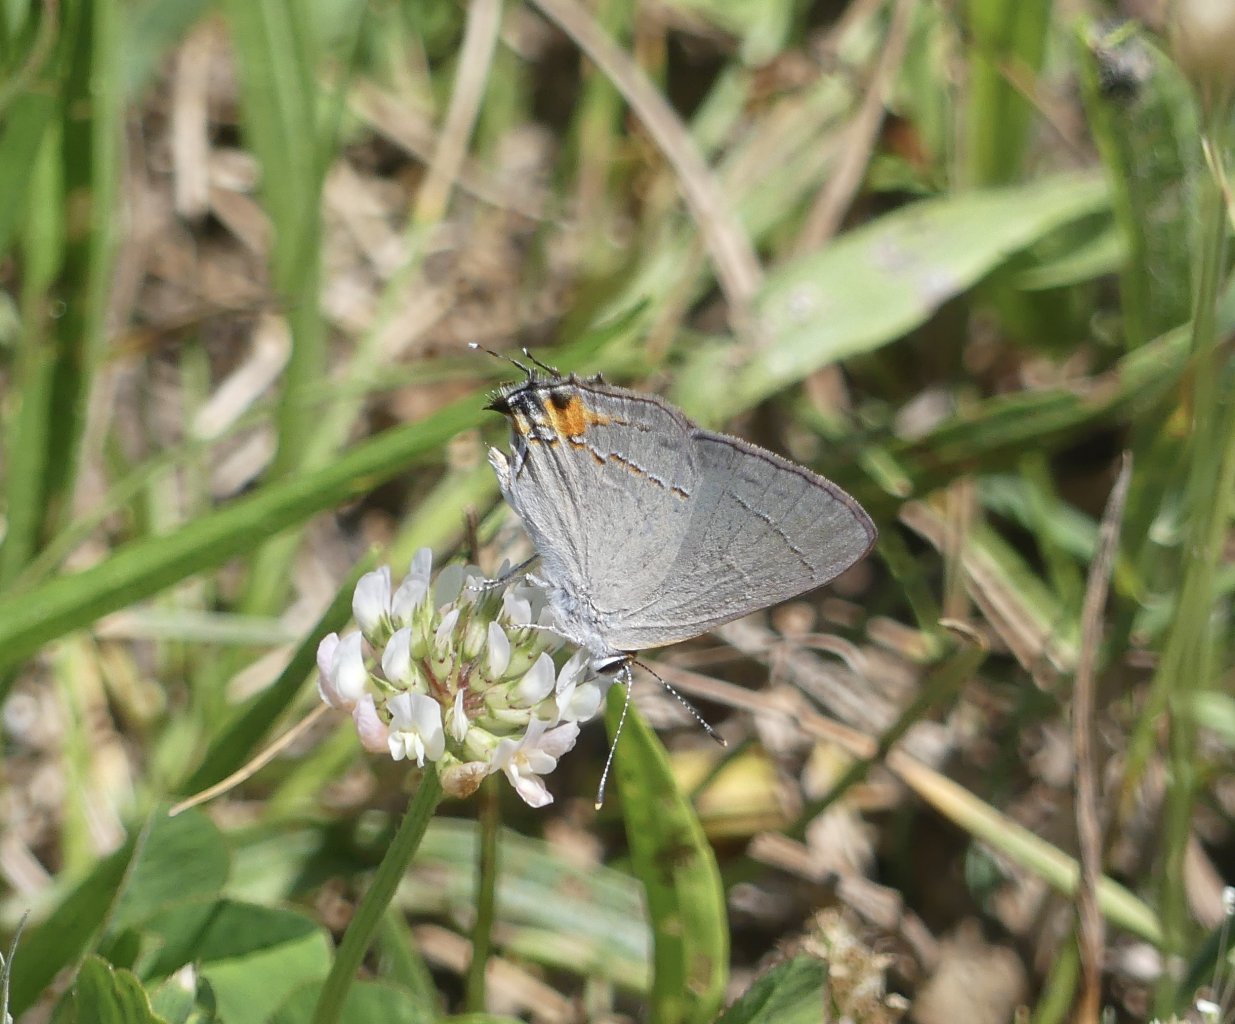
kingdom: Animalia
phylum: Arthropoda
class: Insecta
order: Lepidoptera
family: Lycaenidae
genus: Strymon
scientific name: Strymon melinus
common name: Gray Hairstreak
